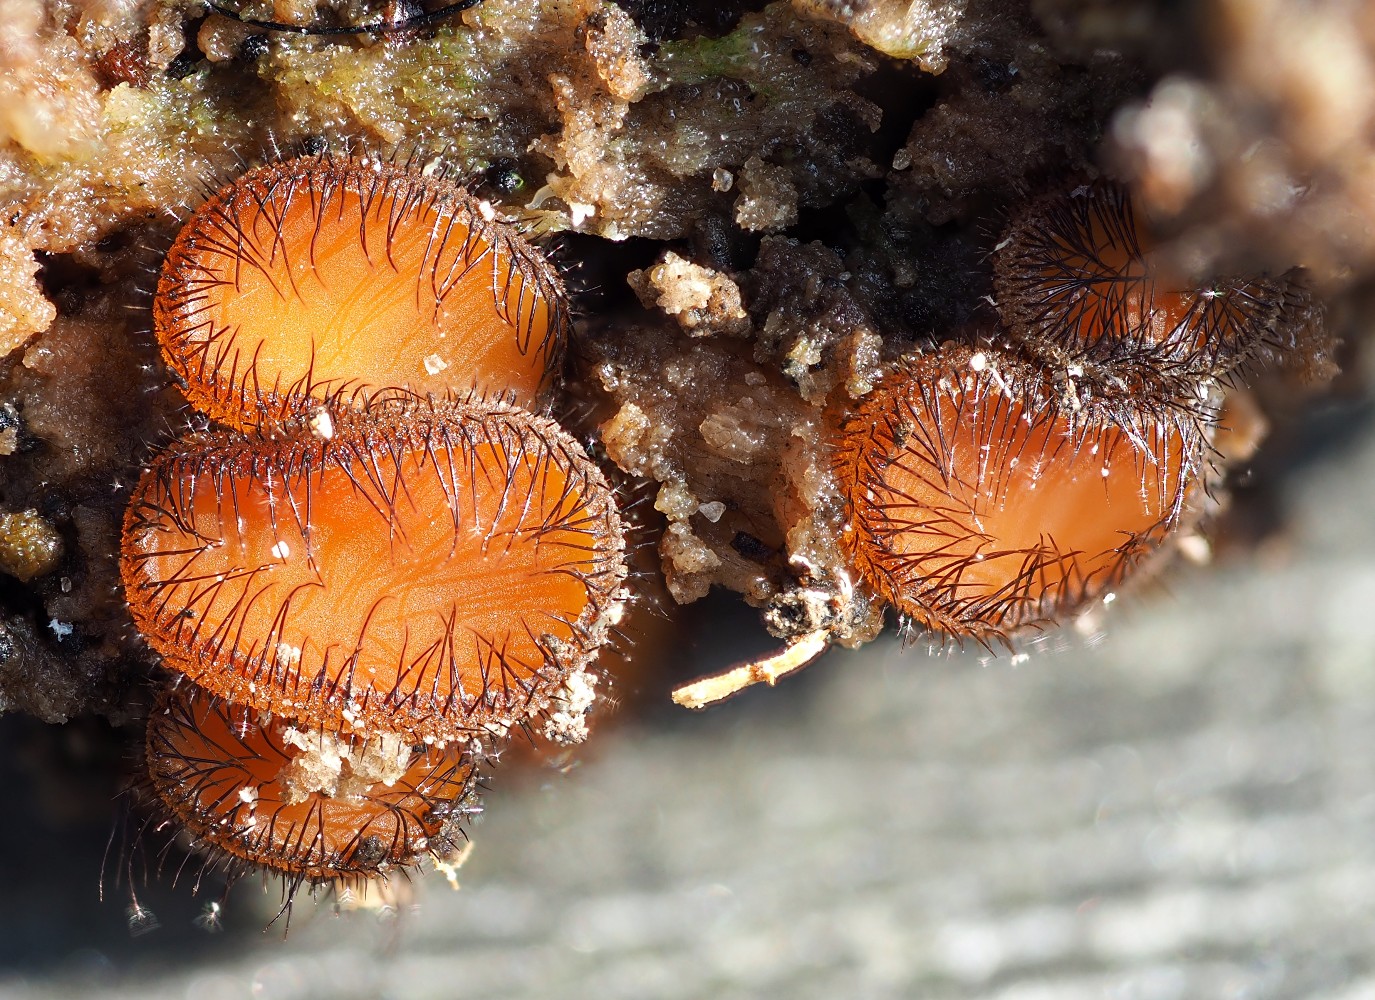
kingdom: Fungi
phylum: Ascomycota
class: Pezizomycetes
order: Pezizales
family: Pyronemataceae
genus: Scutellinia
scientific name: Scutellinia scutellata
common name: frynset skjoldbæger
